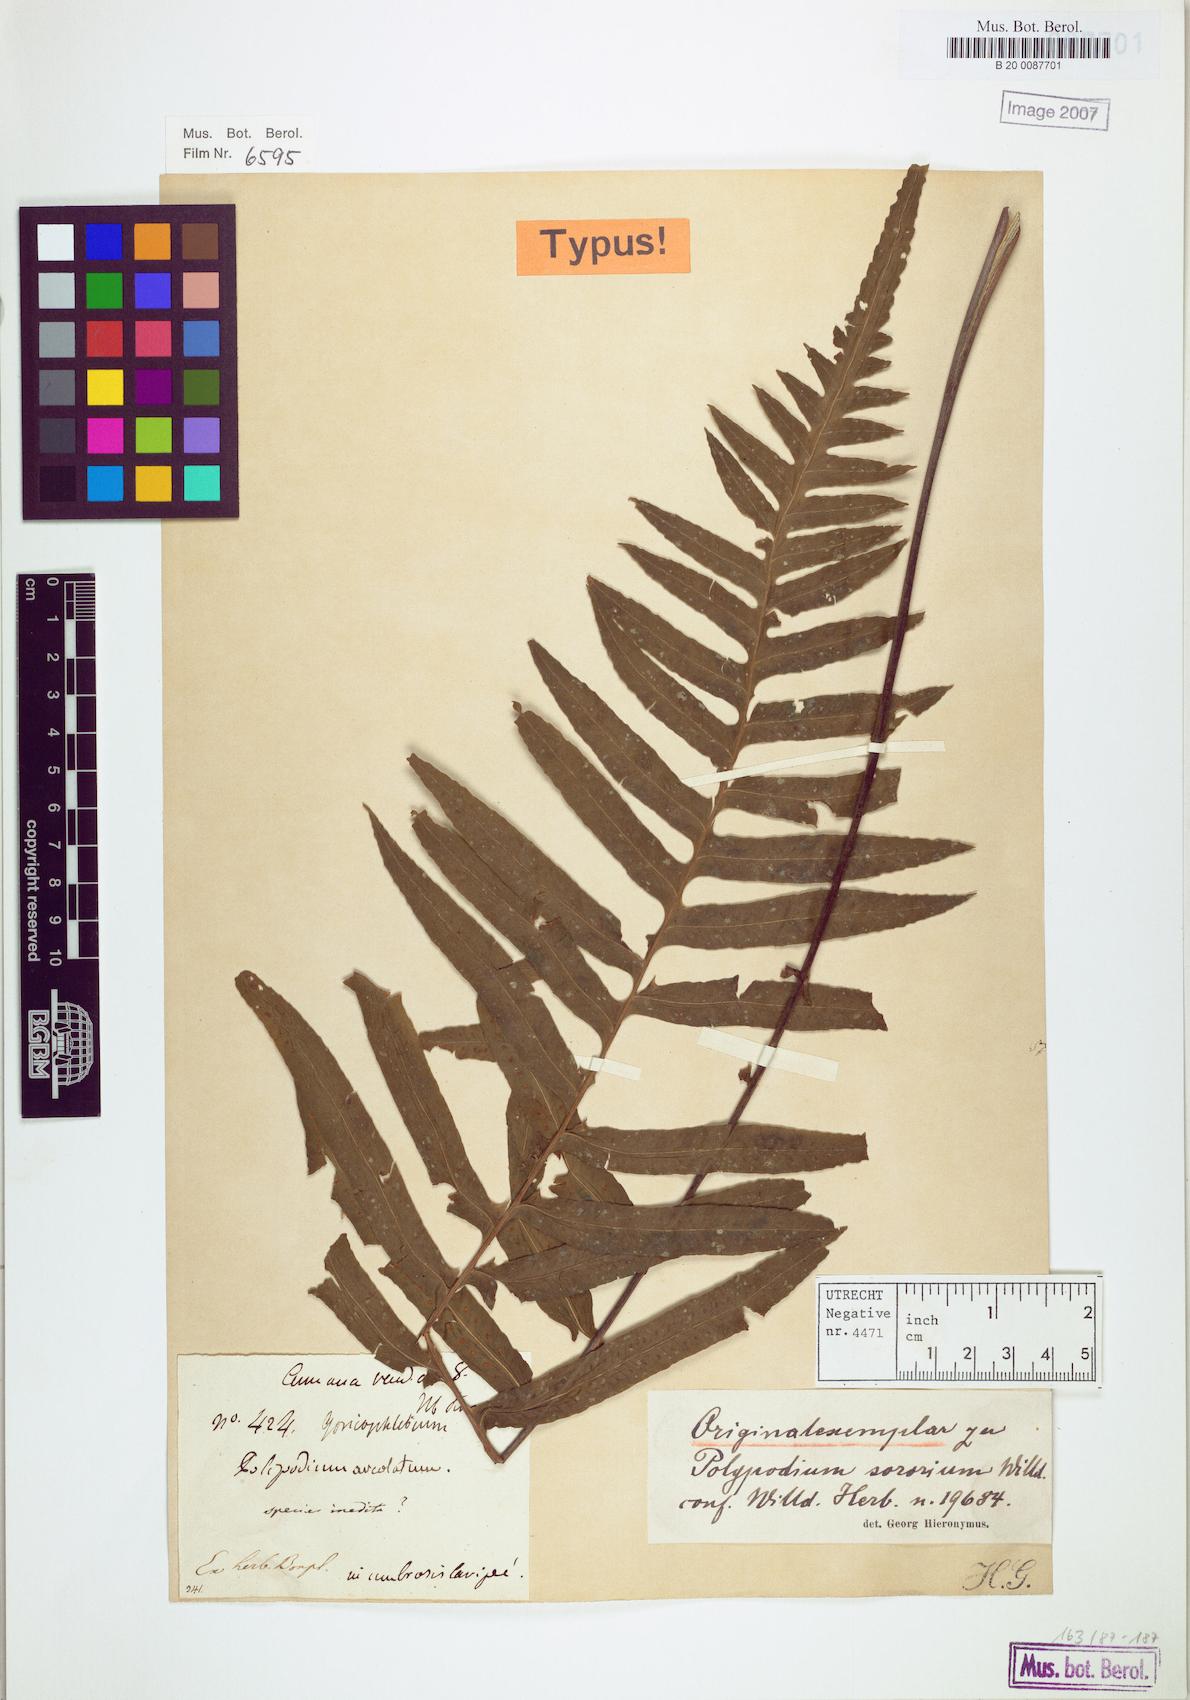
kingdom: Plantae
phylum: Tracheophyta
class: Polypodiopsida
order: Polypodiales
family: Polypodiaceae
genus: Pecluma
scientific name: Pecluma dulcis
